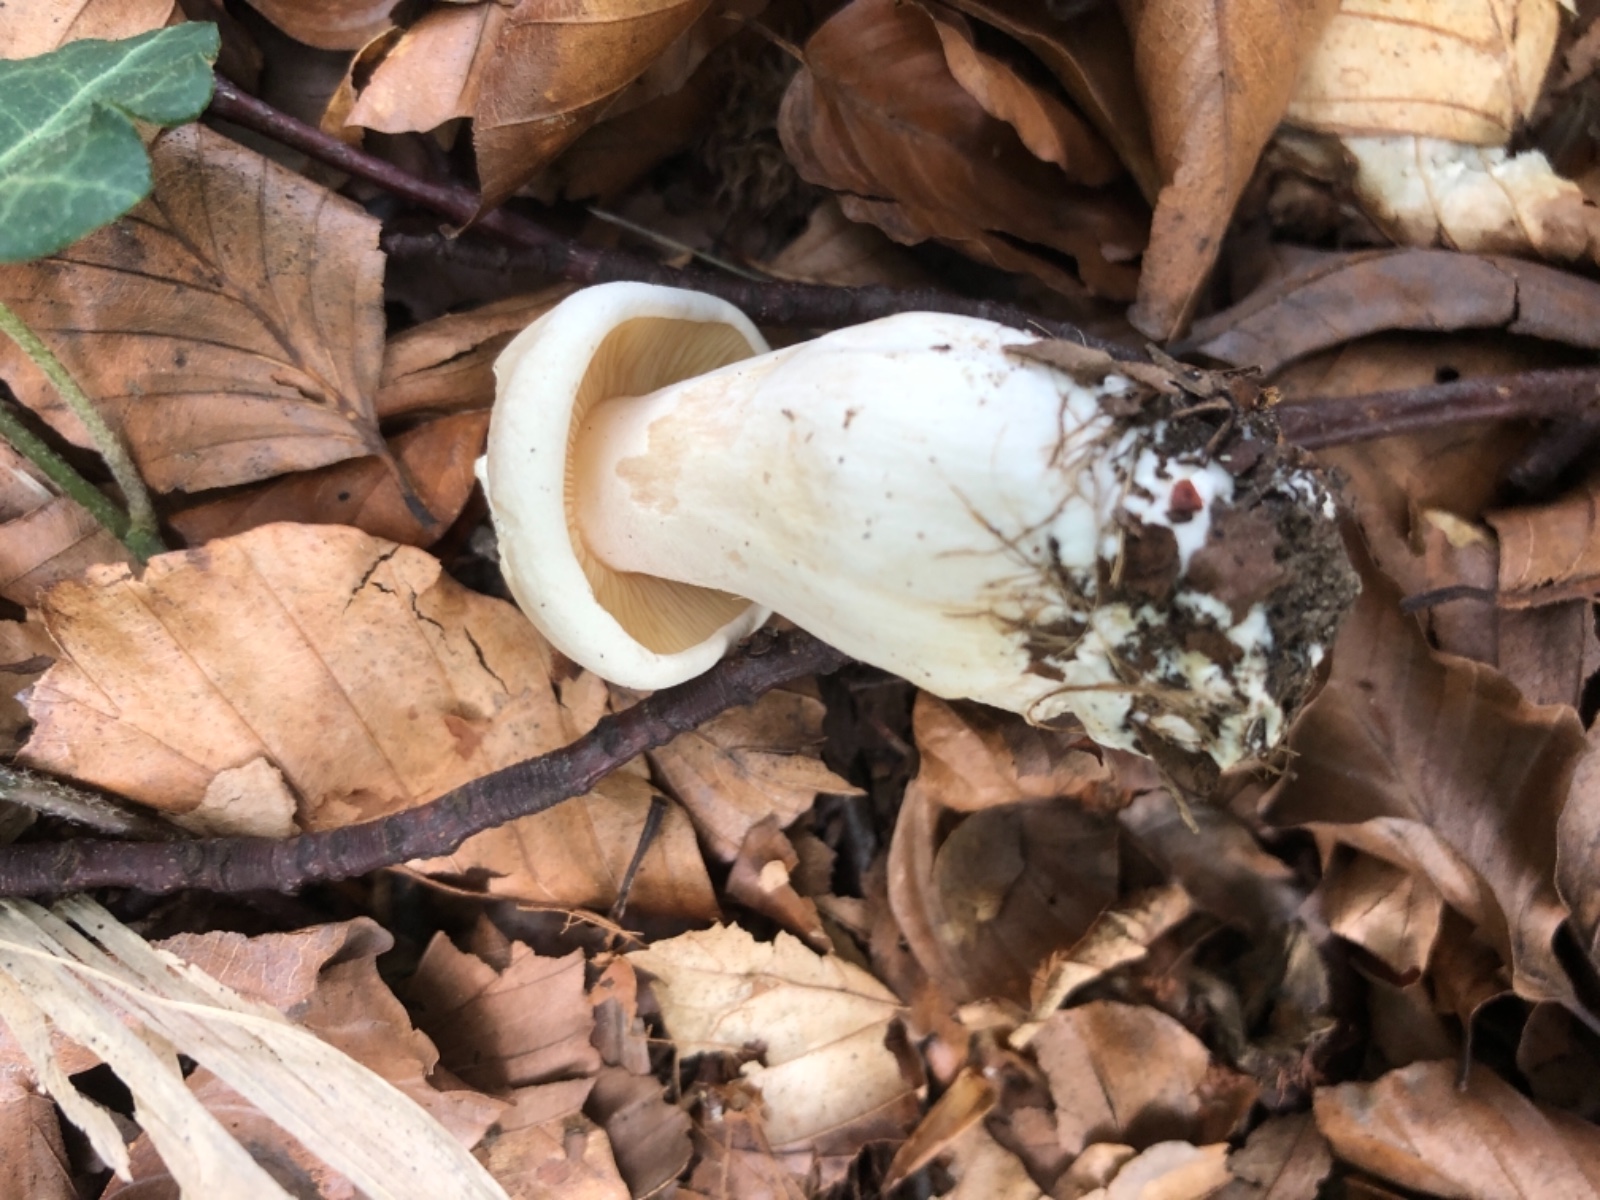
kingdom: Fungi
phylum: Basidiomycota
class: Agaricomycetes
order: Agaricales
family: Entolomataceae
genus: Entoloma
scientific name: Entoloma sinuatum
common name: giftig rødblad
